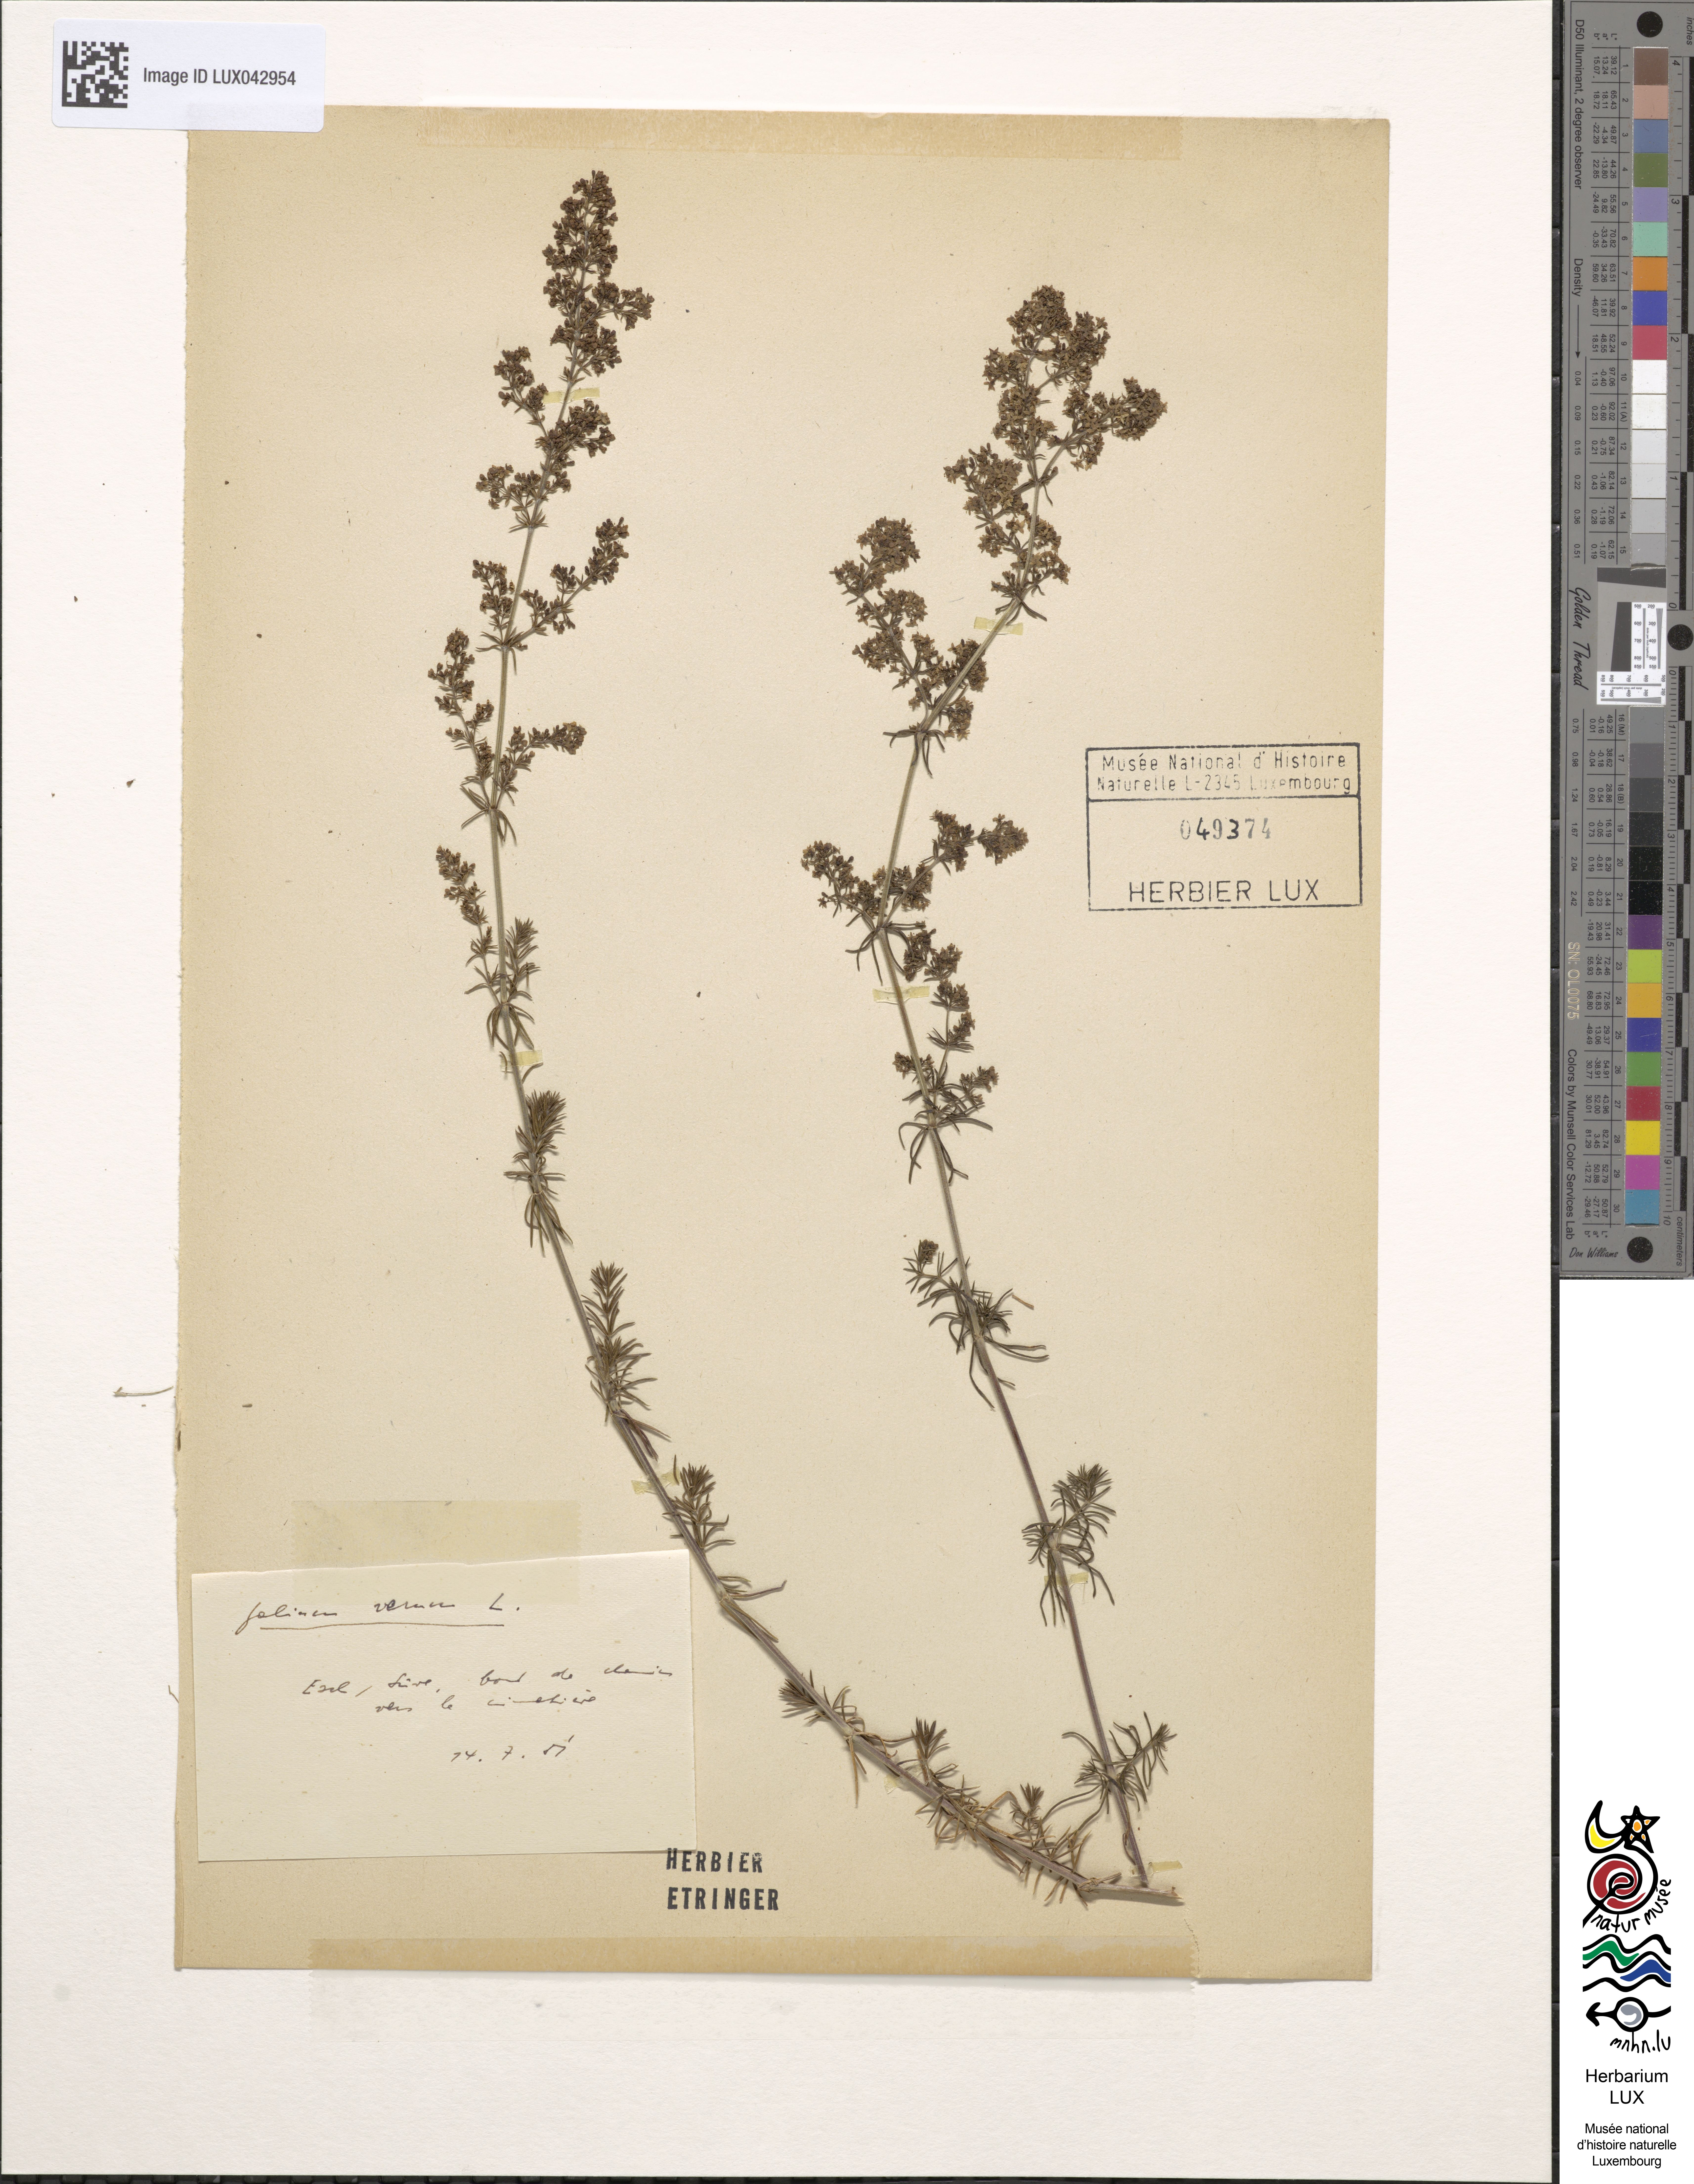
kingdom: Plantae
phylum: Tracheophyta
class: Magnoliopsida
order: Gentianales
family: Rubiaceae
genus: Galium
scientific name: Galium verum
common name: Lady's bedstraw
